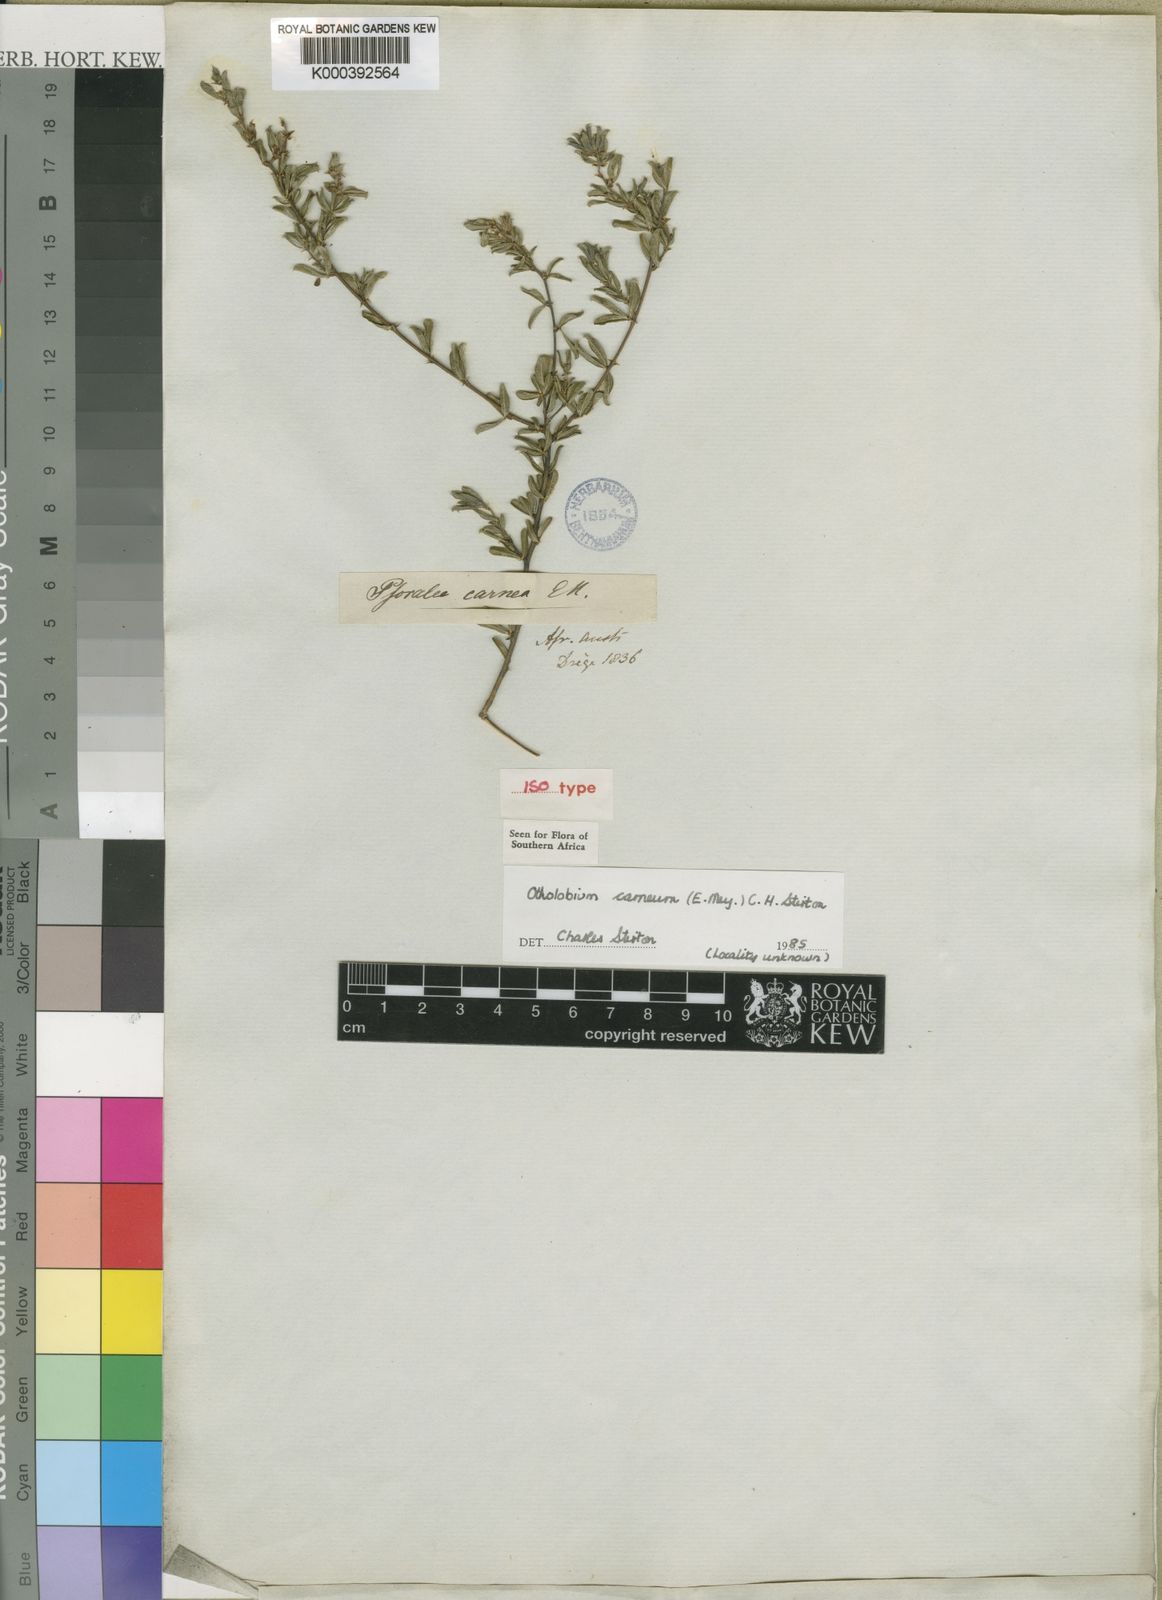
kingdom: Plantae
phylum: Tracheophyta
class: Magnoliopsida
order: Fabales
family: Fabaceae
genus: Psoralea
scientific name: Psoralea Otholobium carneum
